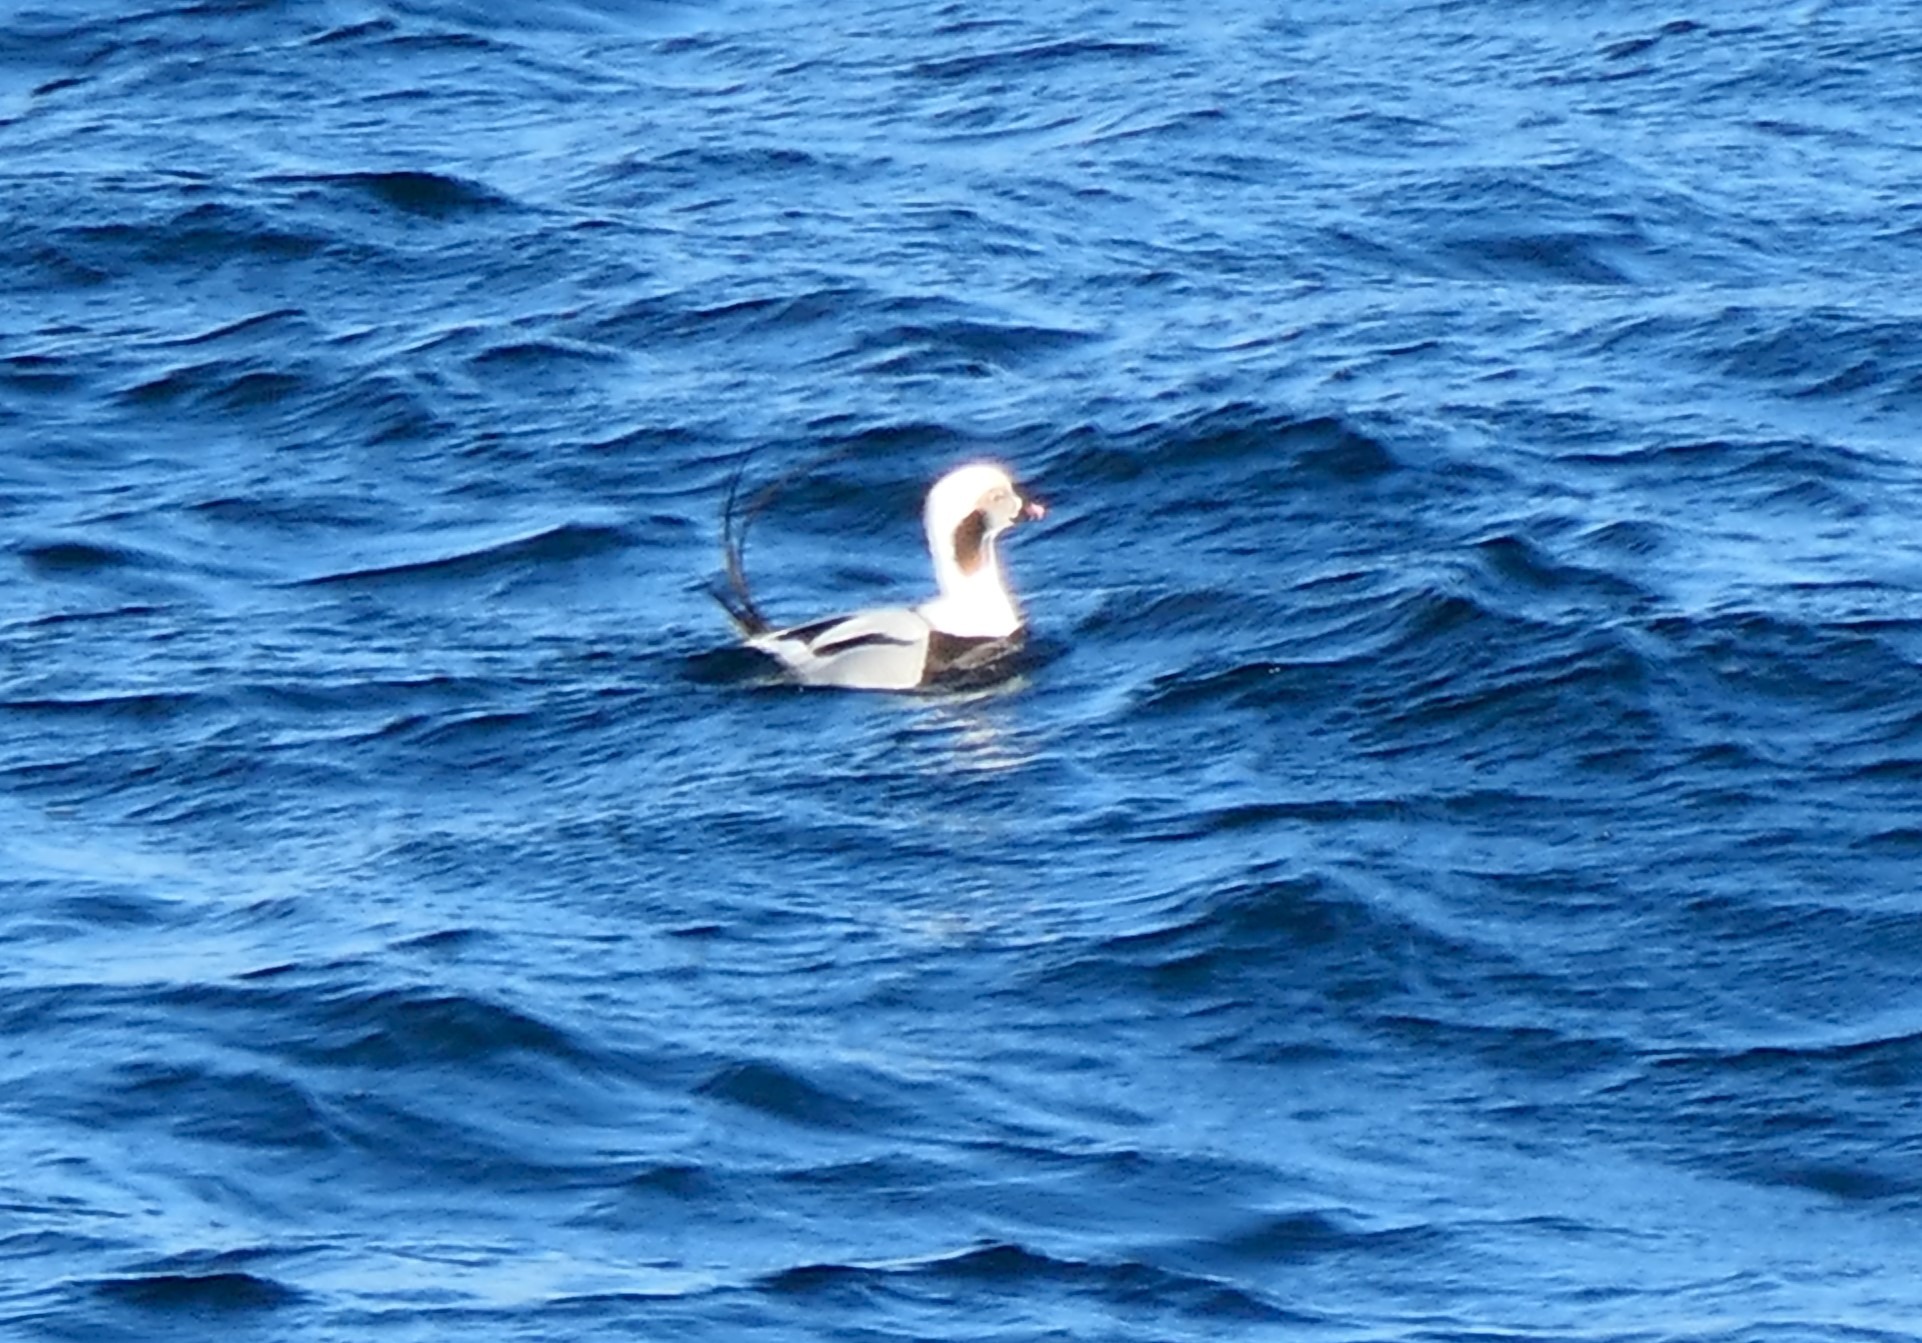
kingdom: Animalia
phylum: Chordata
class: Aves
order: Anseriformes
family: Anatidae
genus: Clangula
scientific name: Clangula hyemalis
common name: Havlit
